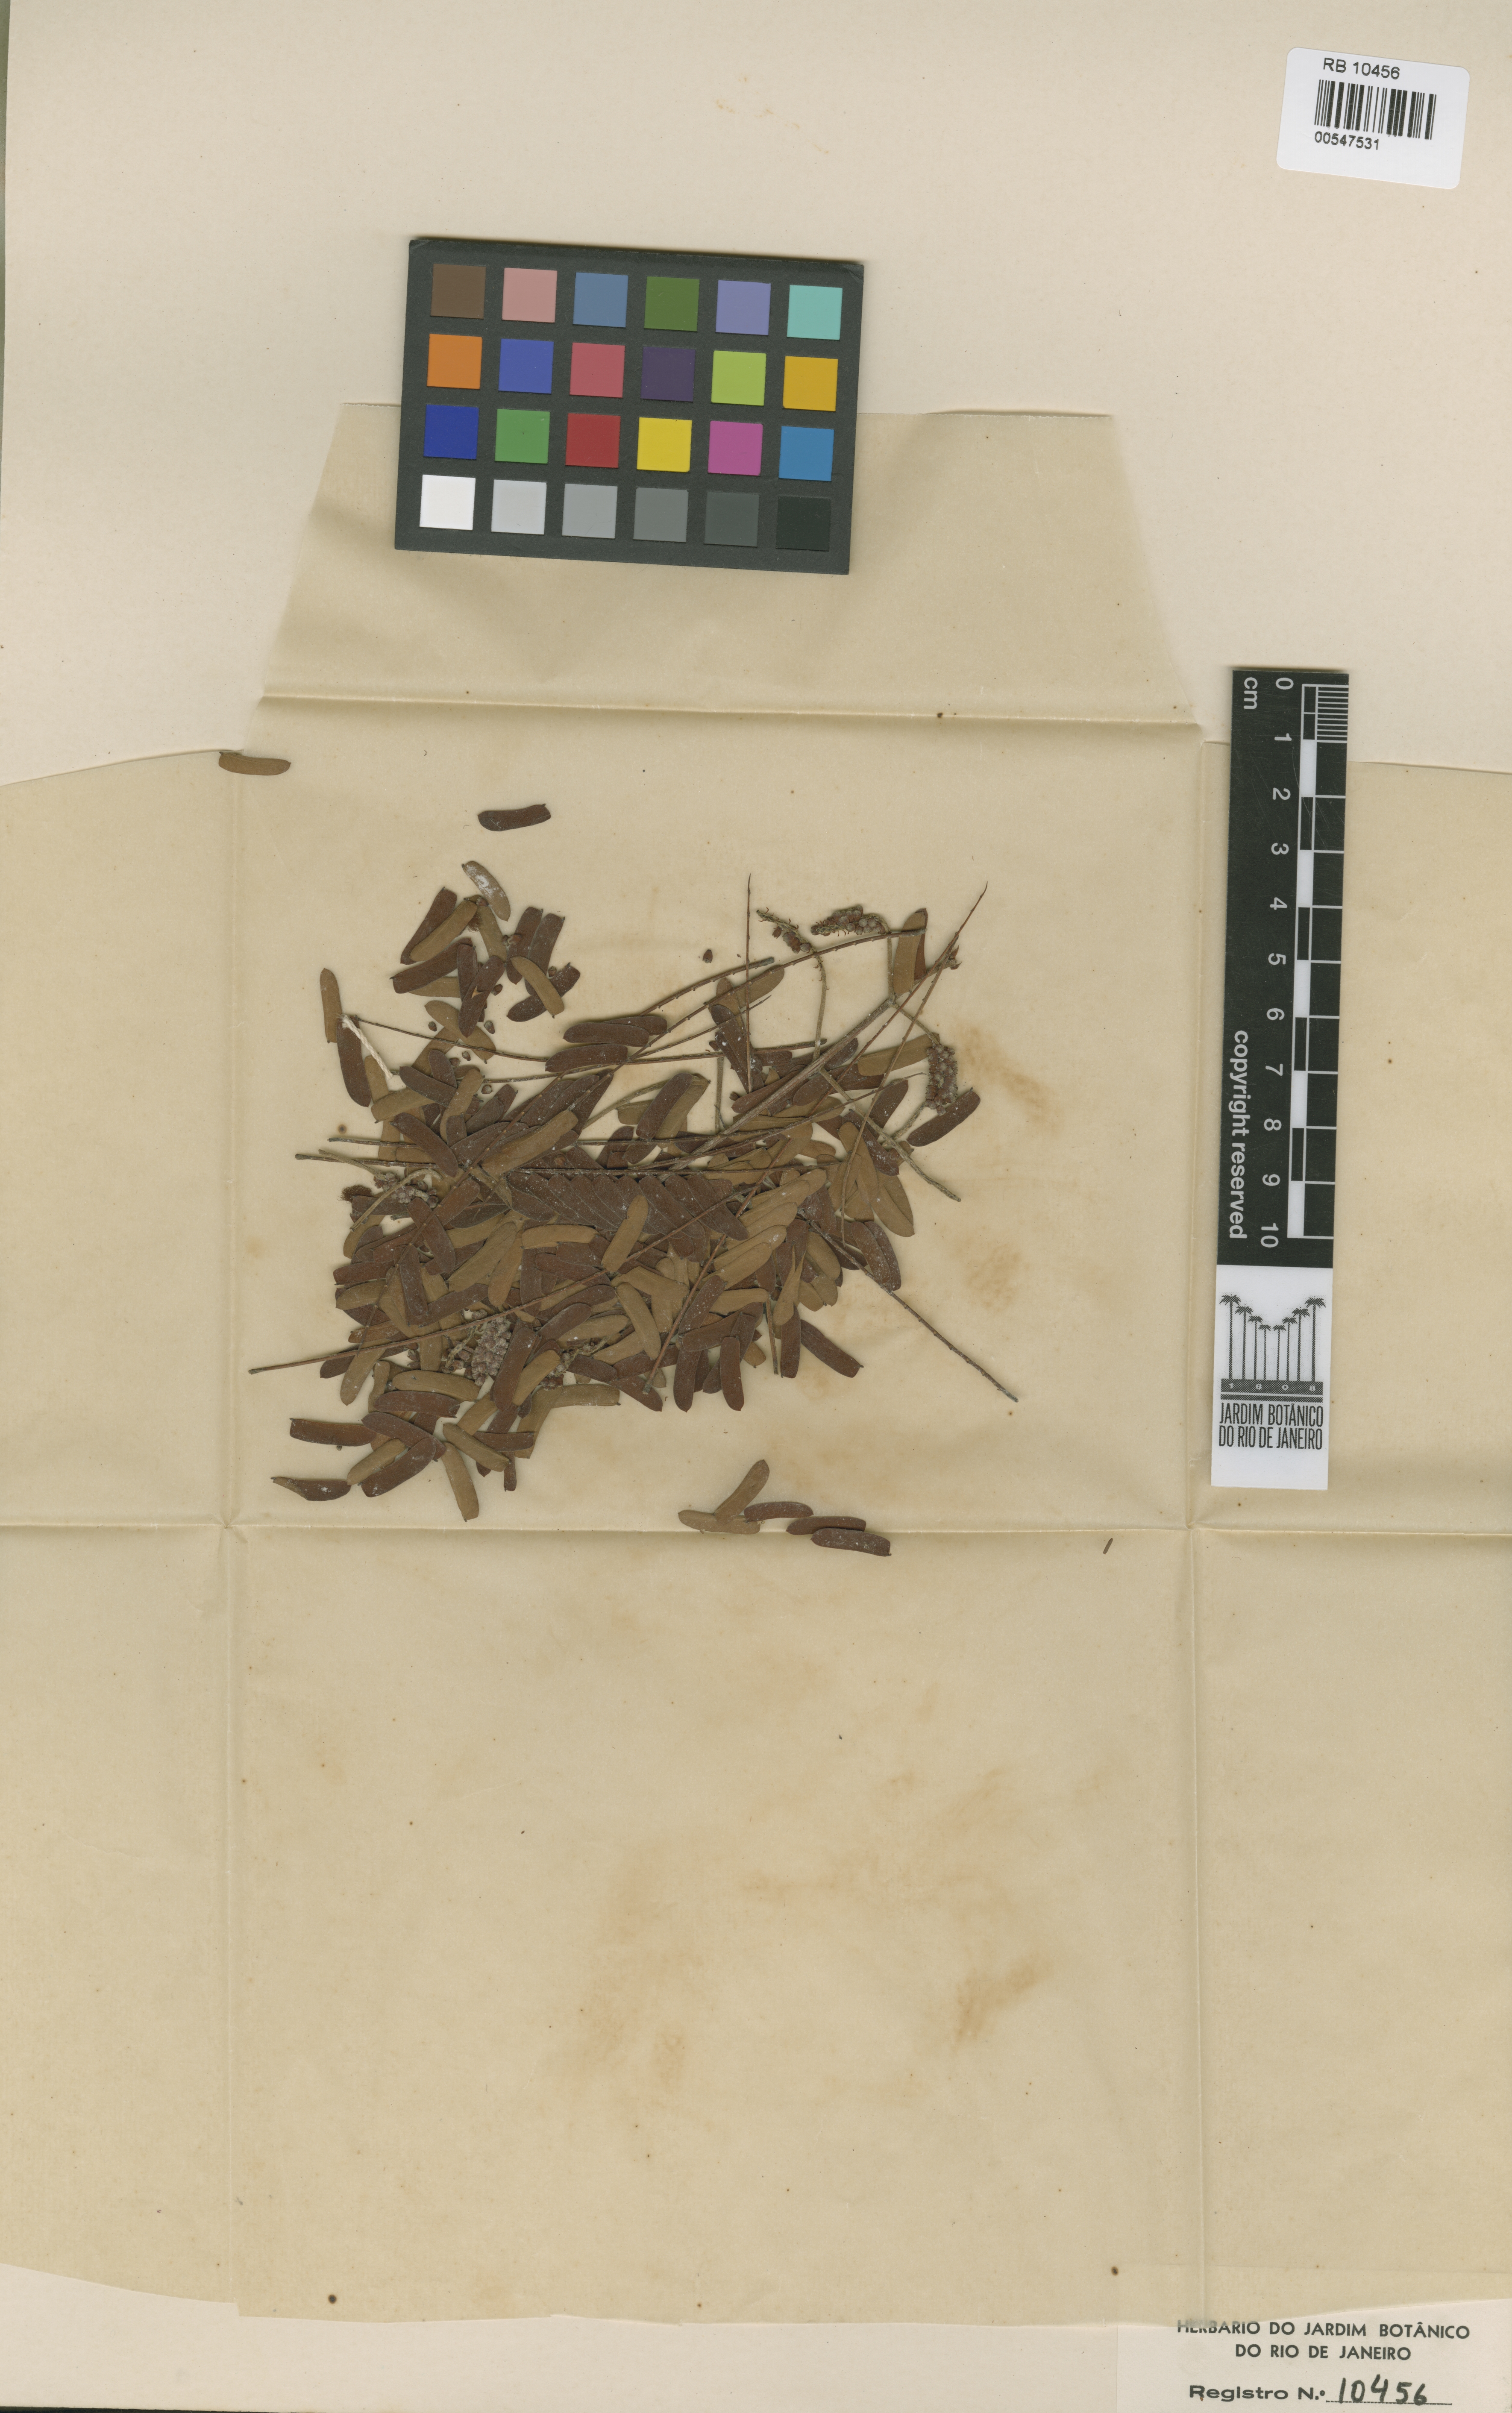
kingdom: Plantae
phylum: Tracheophyta
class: Magnoliopsida
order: Fabales
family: Fabaceae
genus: Senegalia
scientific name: Senegalia paraensis
